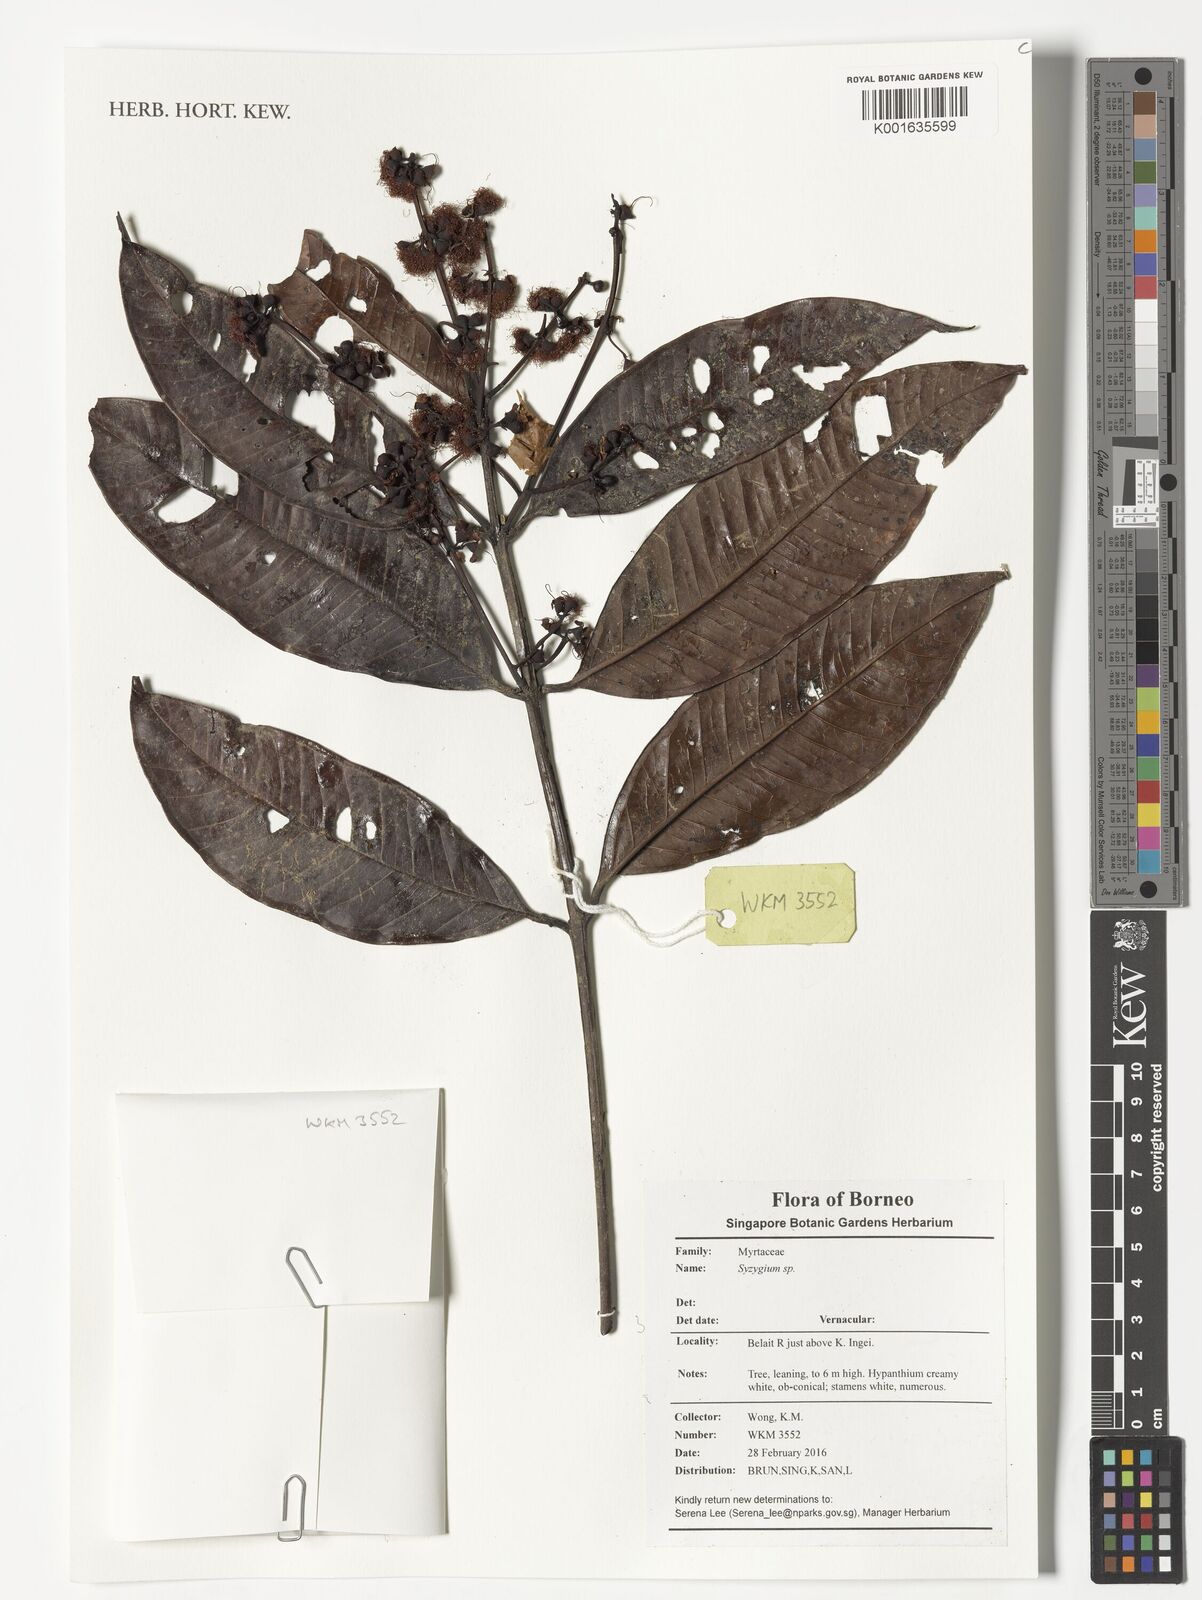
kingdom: Plantae
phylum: Tracheophyta
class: Magnoliopsida
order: Myrtales
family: Myrtaceae
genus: Psidium
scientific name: Psidium
